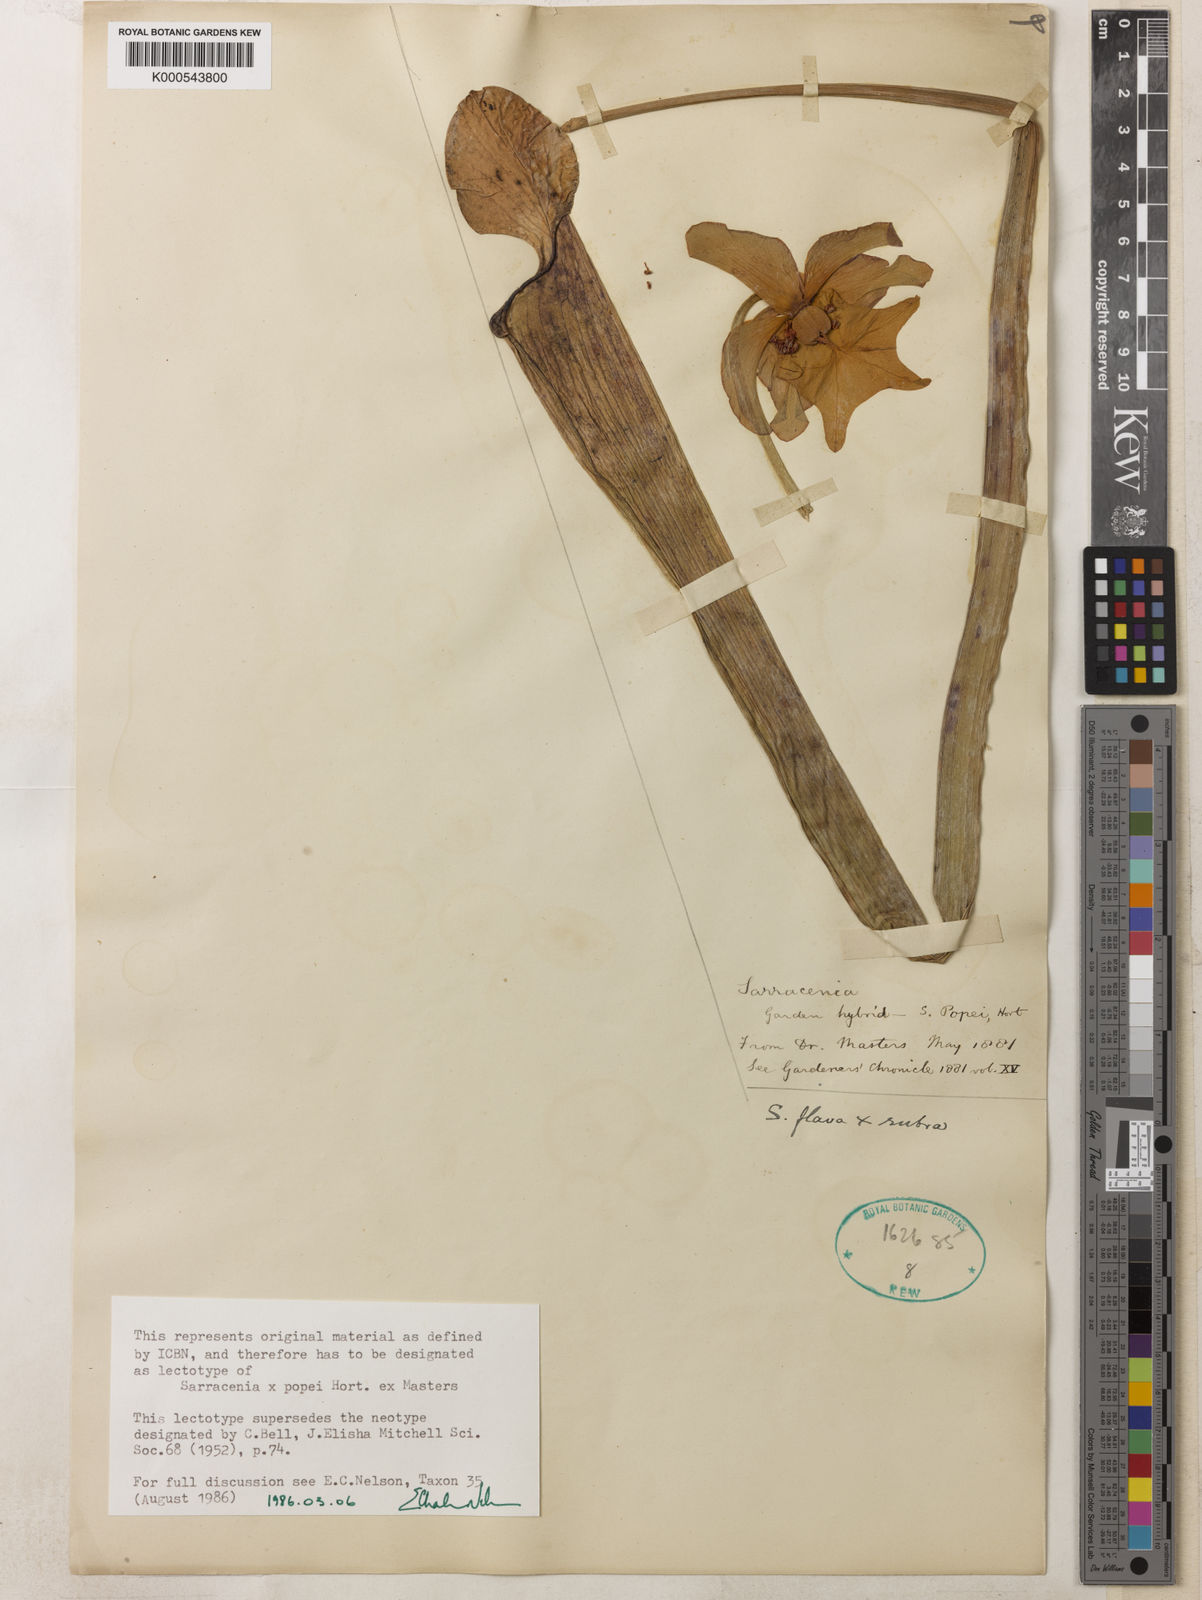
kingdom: Plantae
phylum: Tracheophyta
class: Magnoliopsida
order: Ericales
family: Sarraceniaceae
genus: Sarracenia
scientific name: Sarracenia popei
